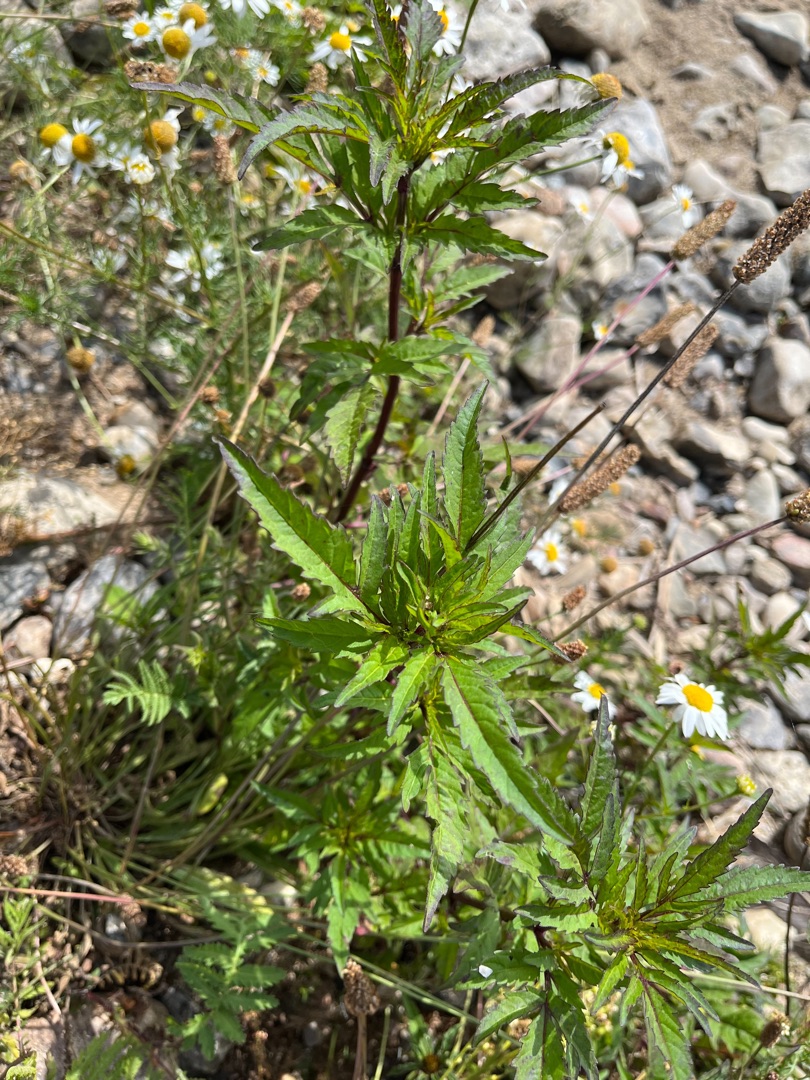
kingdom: Plantae
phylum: Tracheophyta
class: Magnoliopsida
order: Asterales
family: Asteraceae
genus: Bidens
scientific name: Bidens tripartita
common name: Fliget brøndsel
